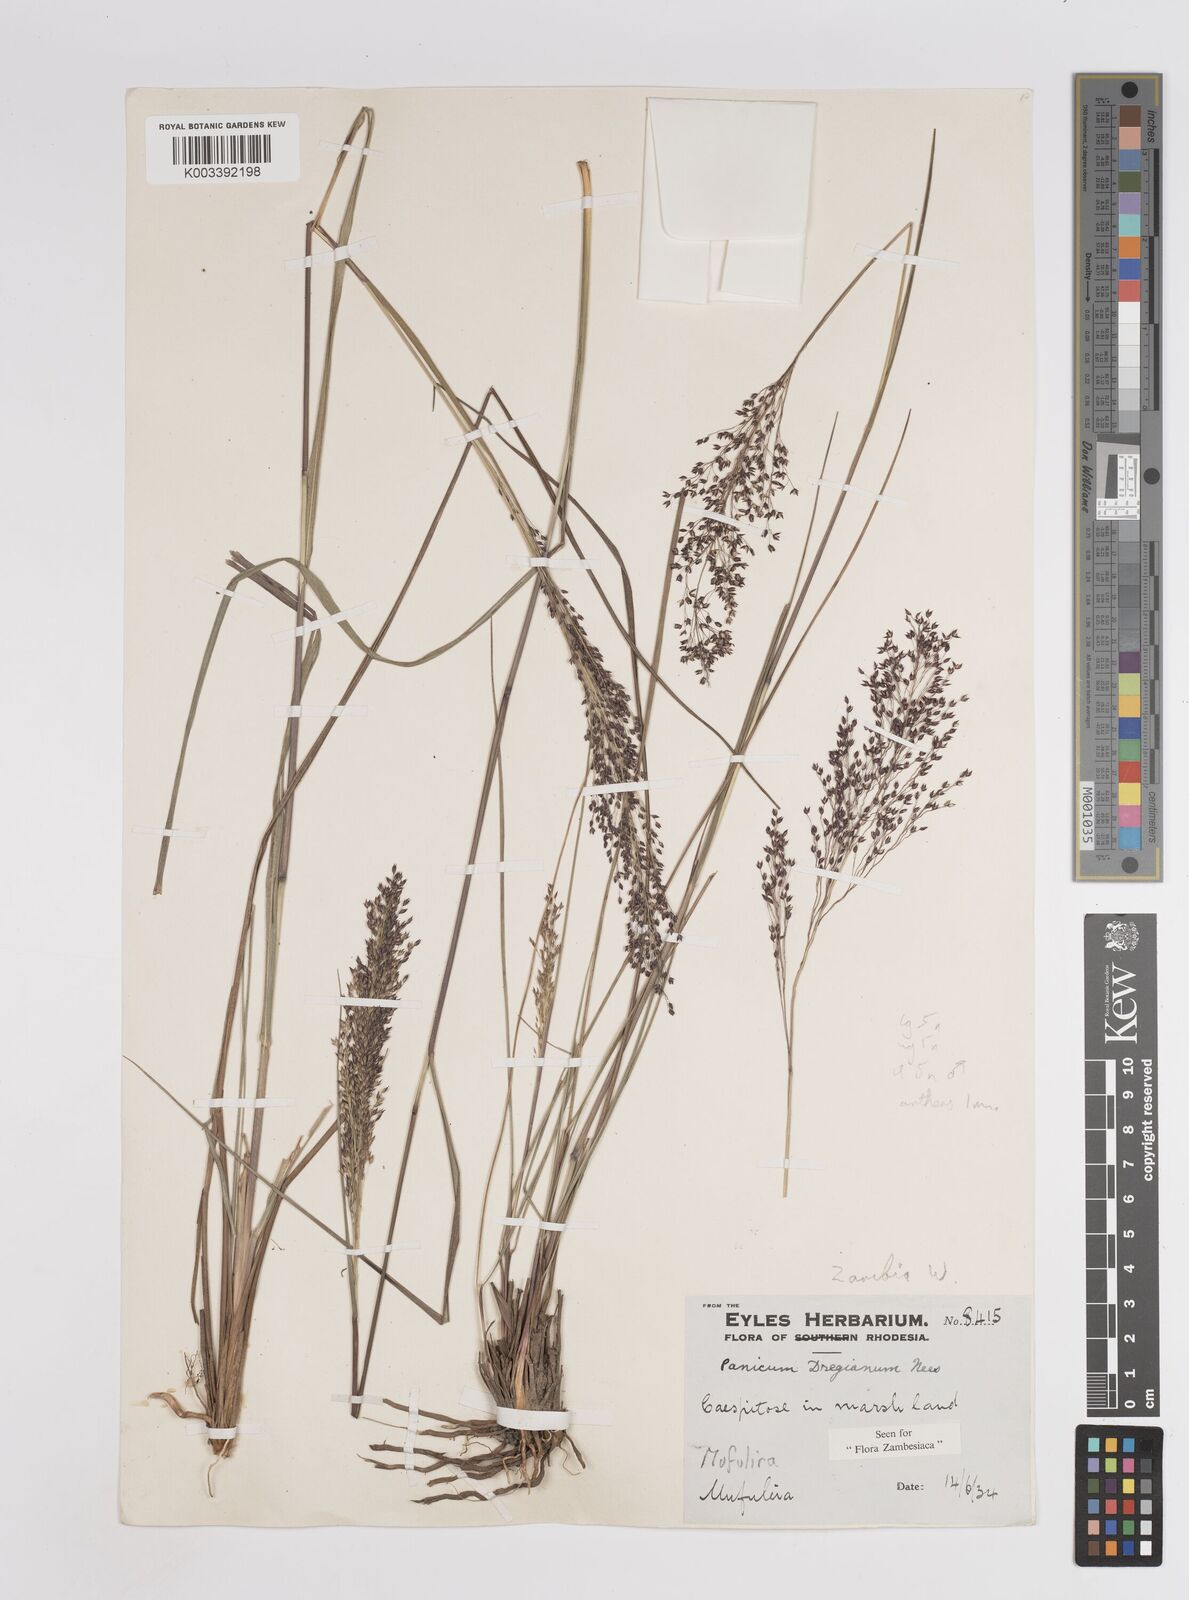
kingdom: Plantae
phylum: Tracheophyta
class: Liliopsida
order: Poales
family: Poaceae
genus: Panicum
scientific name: Panicum dregeanum
